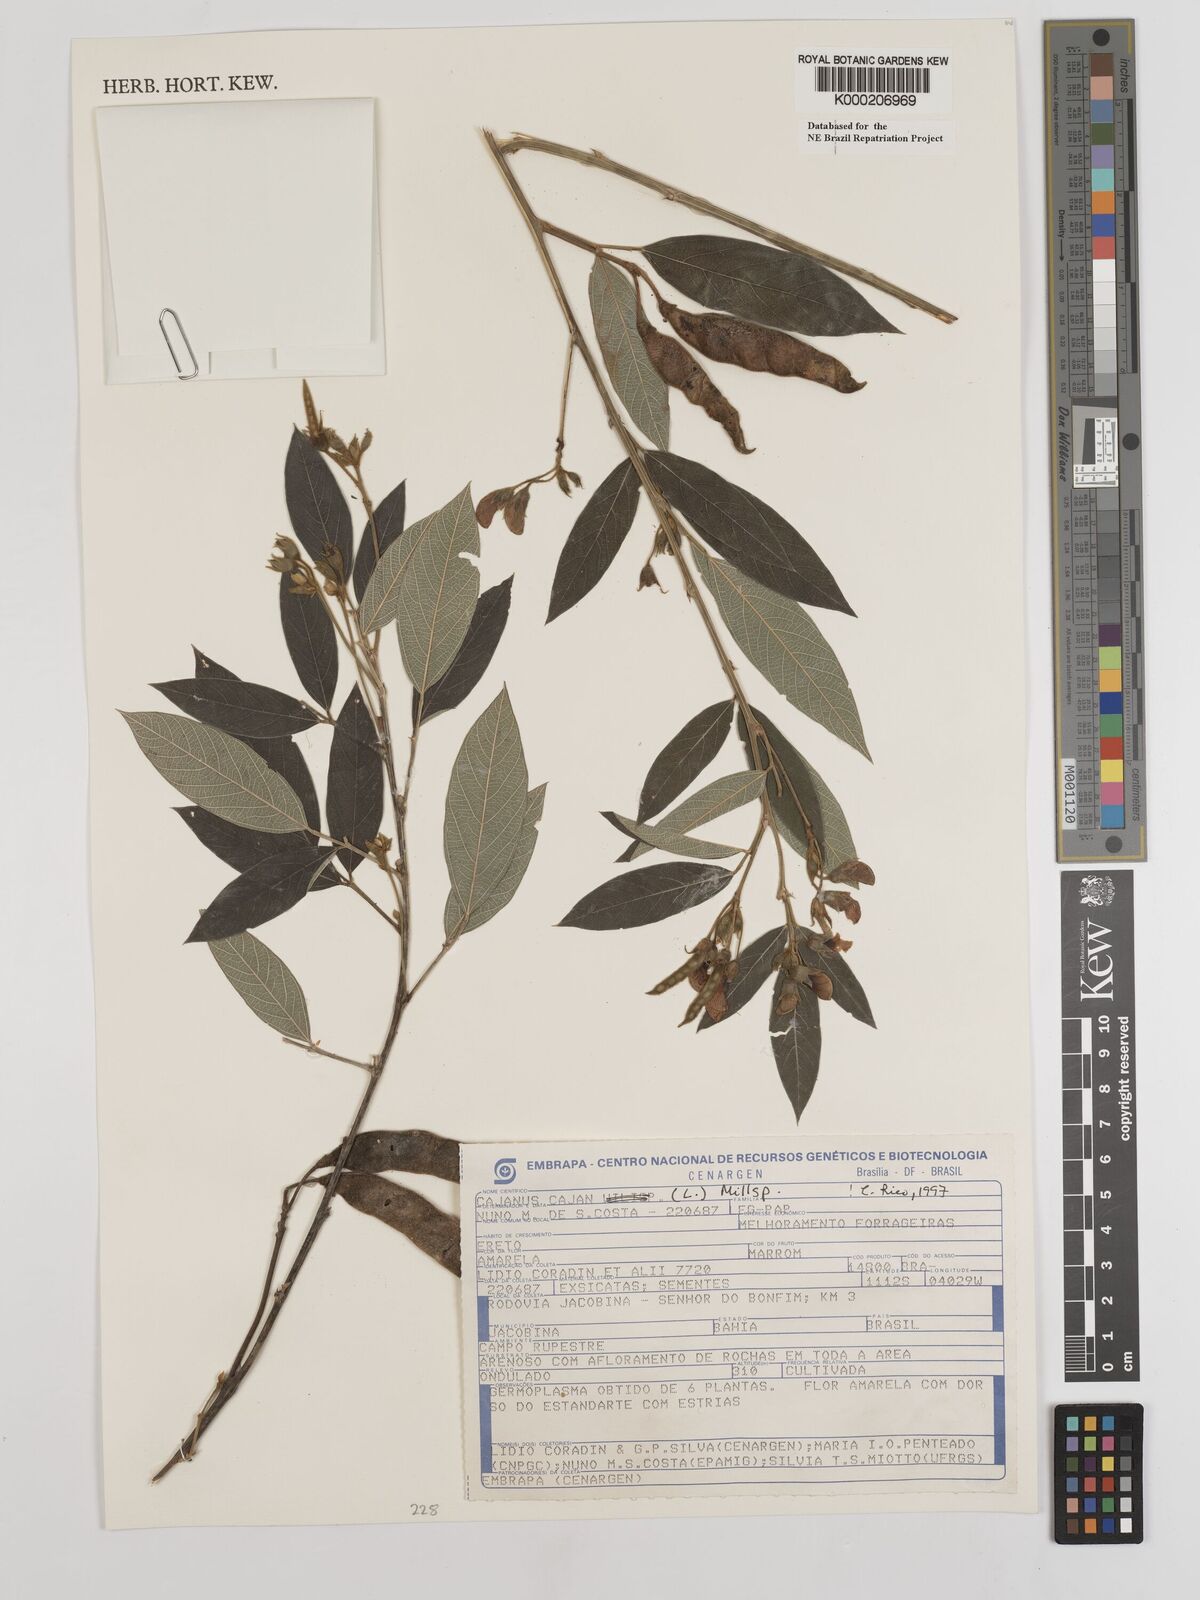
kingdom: Plantae
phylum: Tracheophyta
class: Magnoliopsida
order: Fabales
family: Fabaceae
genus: Cajanus
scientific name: Cajanus
